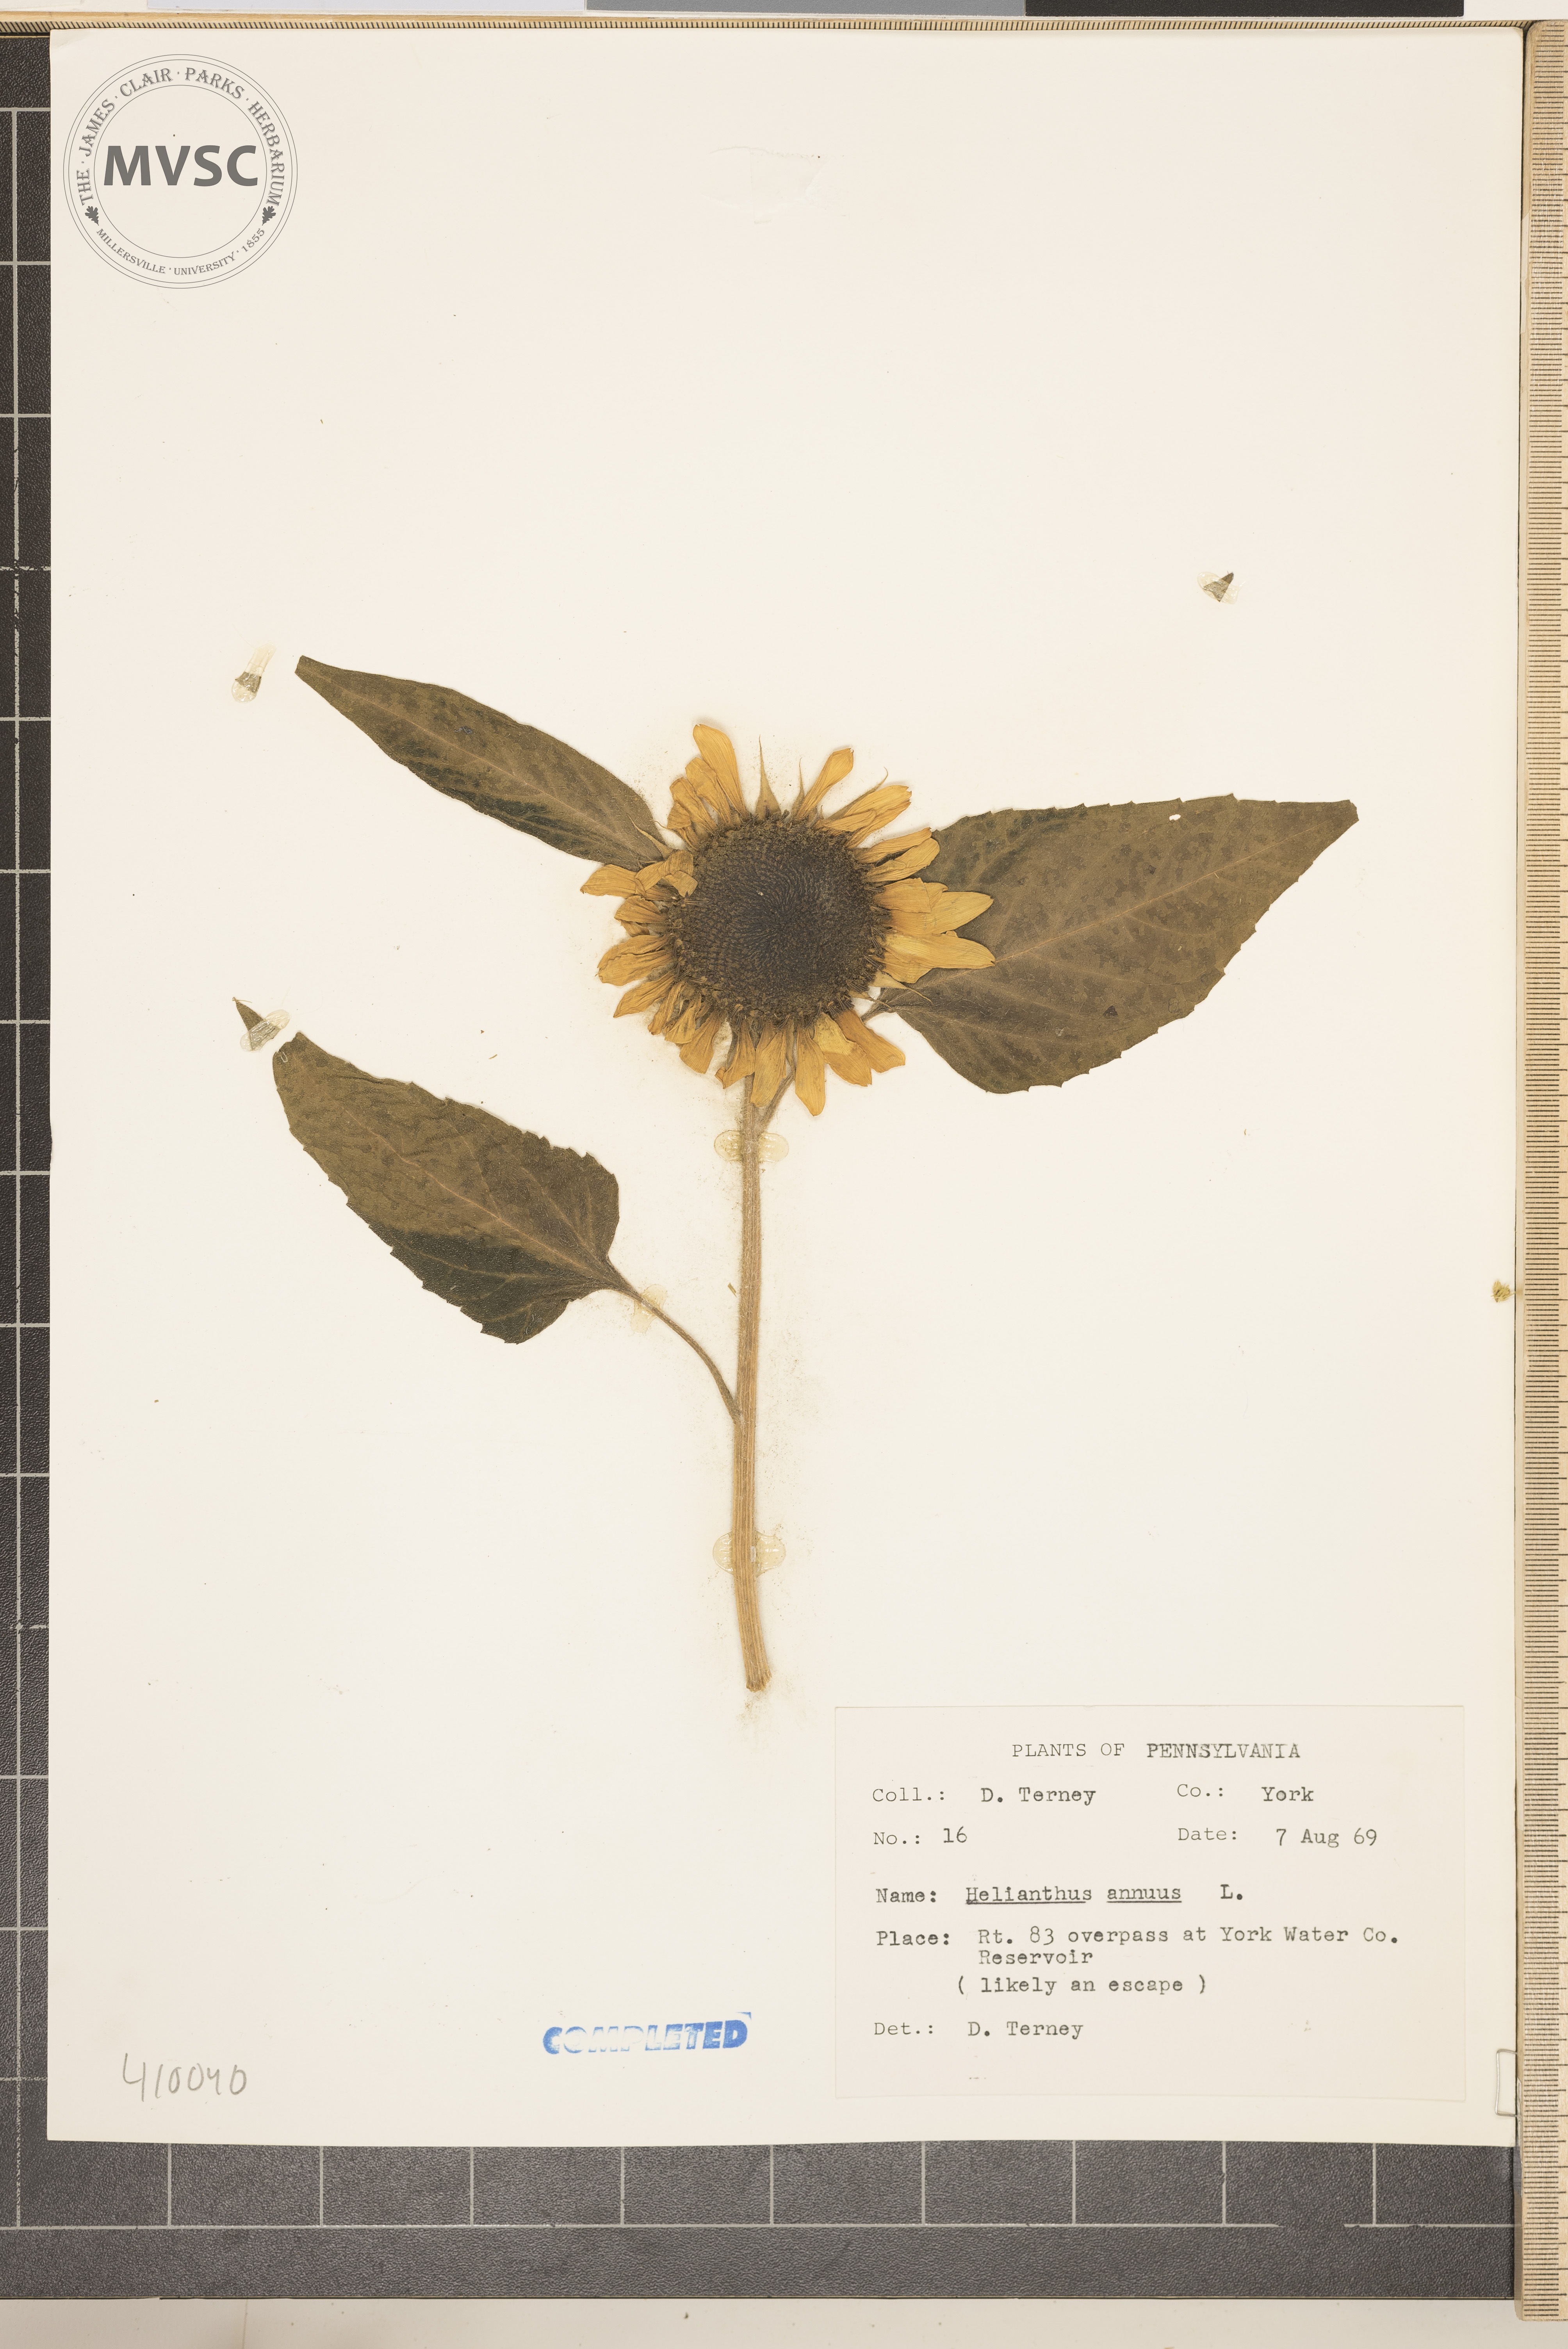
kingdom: Plantae
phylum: Tracheophyta
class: Magnoliopsida
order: Asterales
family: Asteraceae
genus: Helianthus
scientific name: Helianthus annuus
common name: Sunflower
